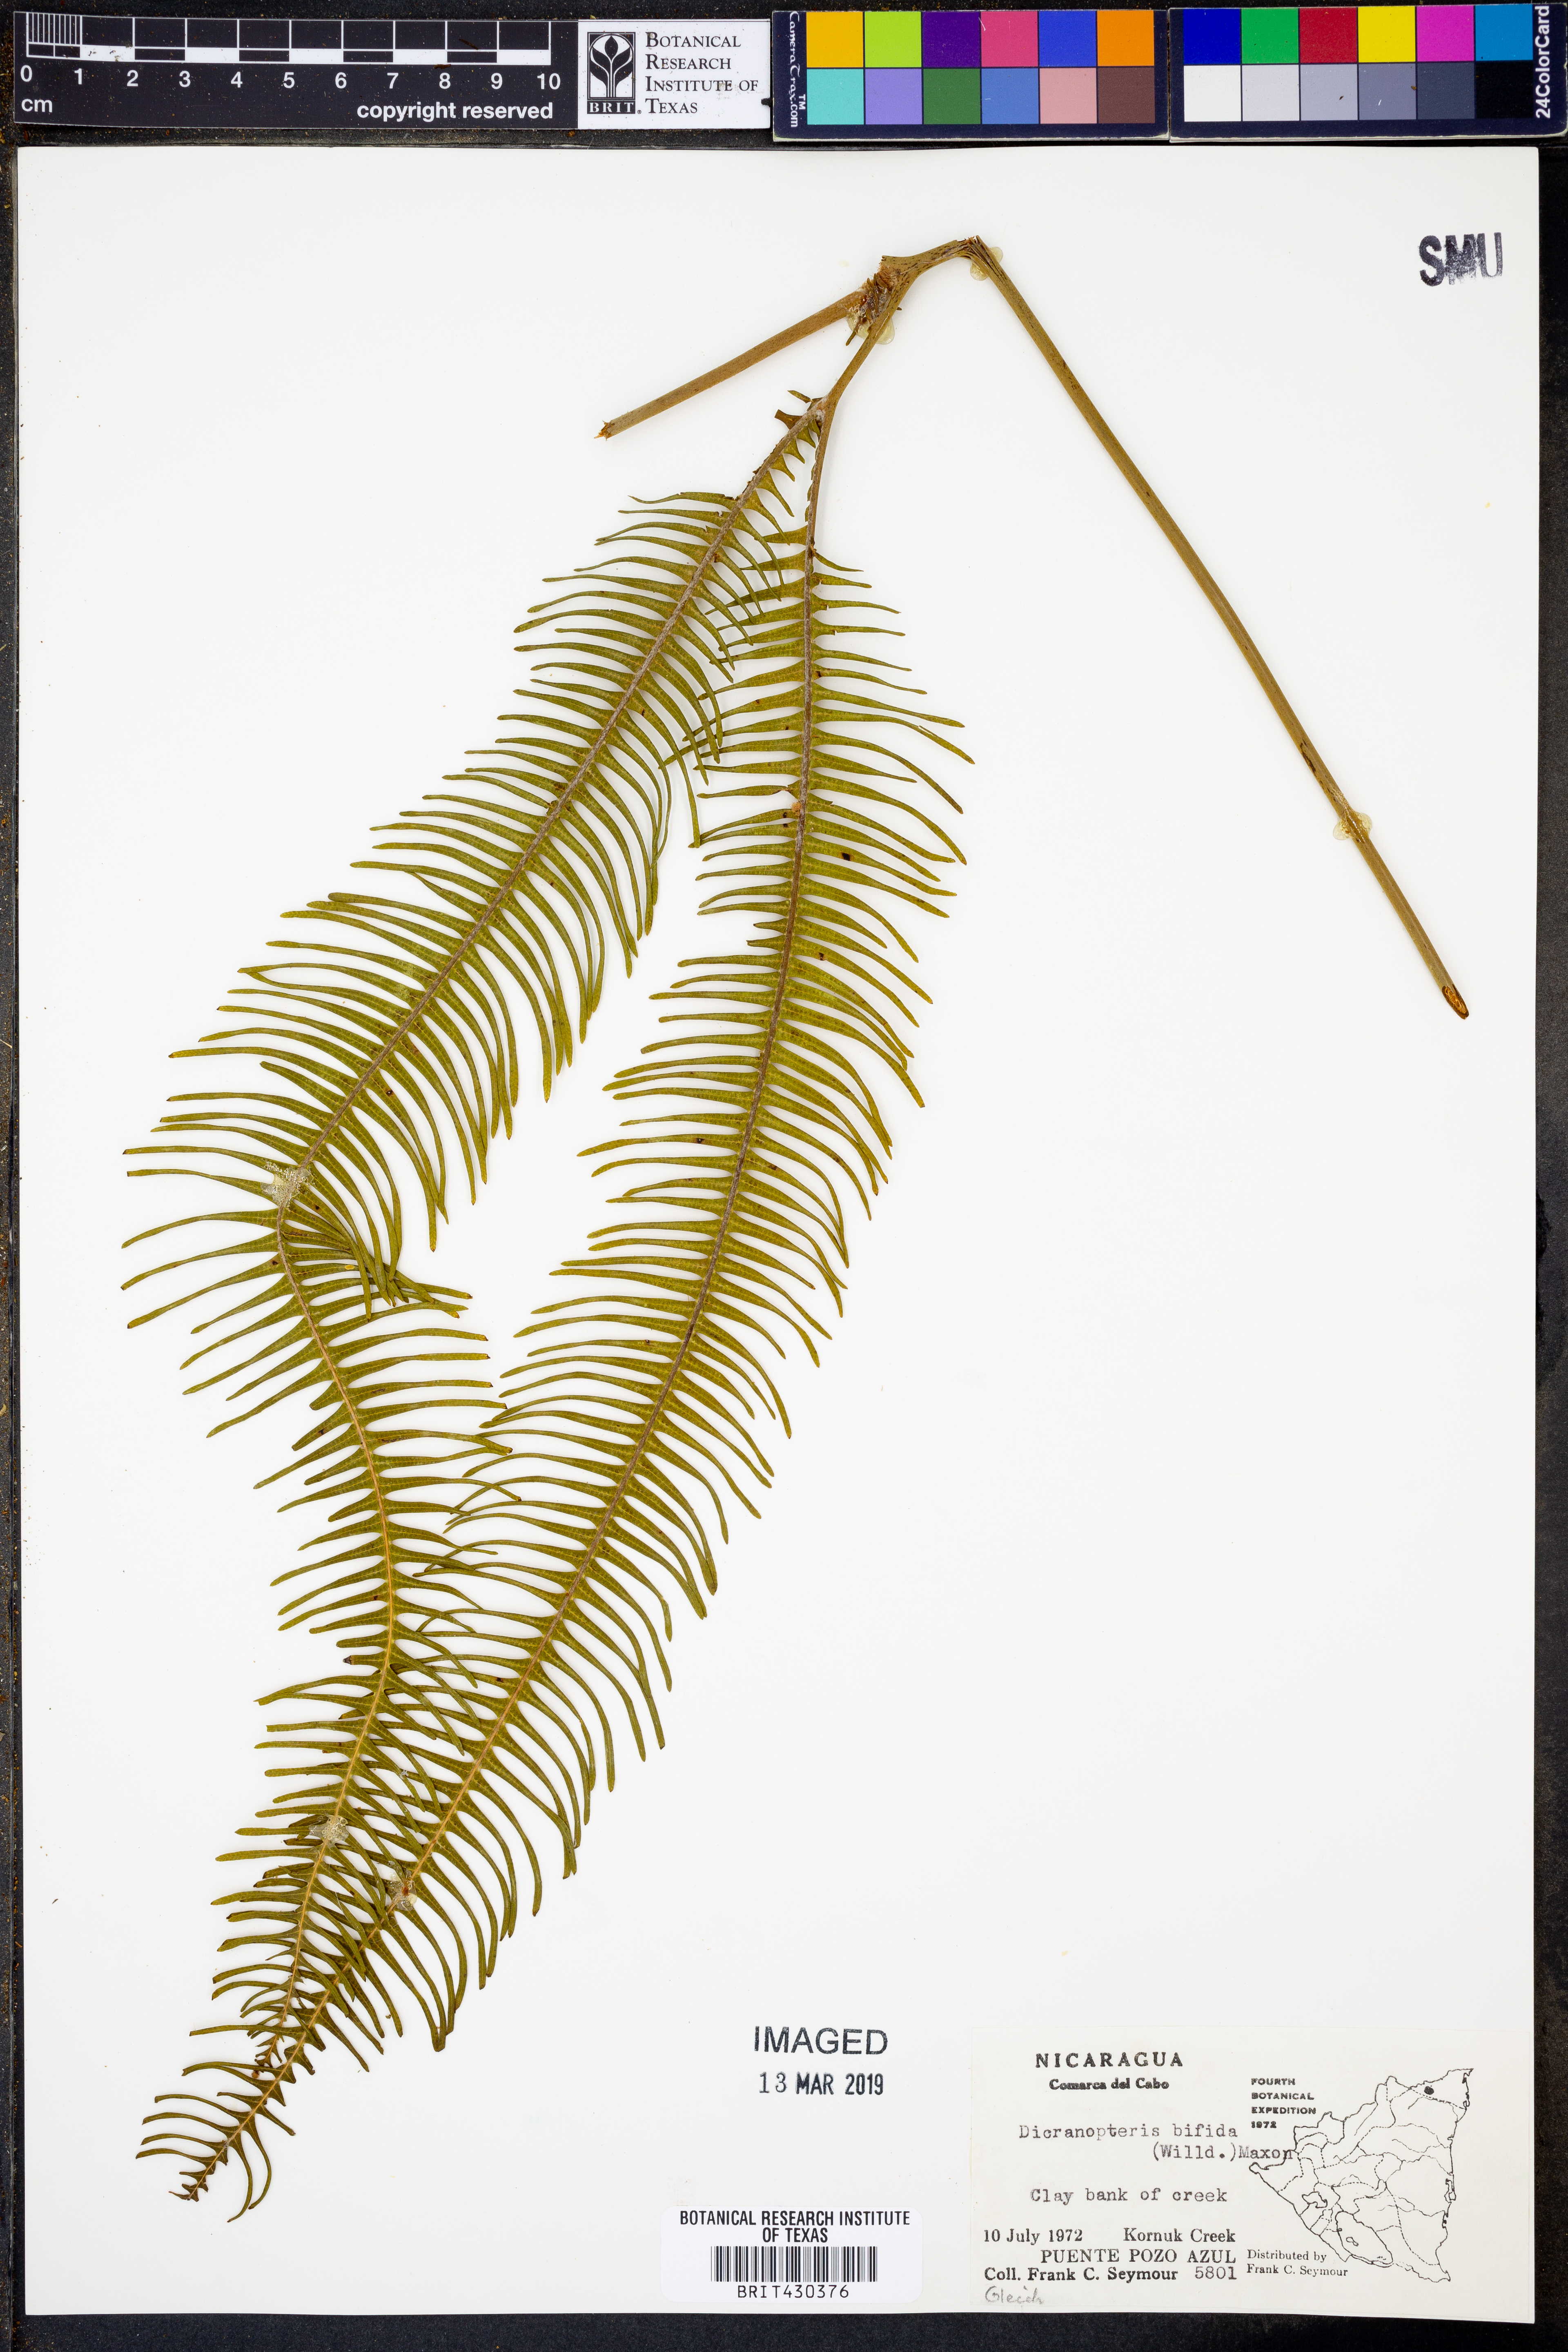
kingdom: Plantae
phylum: Tracheophyta
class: Polypodiopsida
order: Gleicheniales
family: Gleicheniaceae
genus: Sticherus
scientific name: Sticherus bifidus
